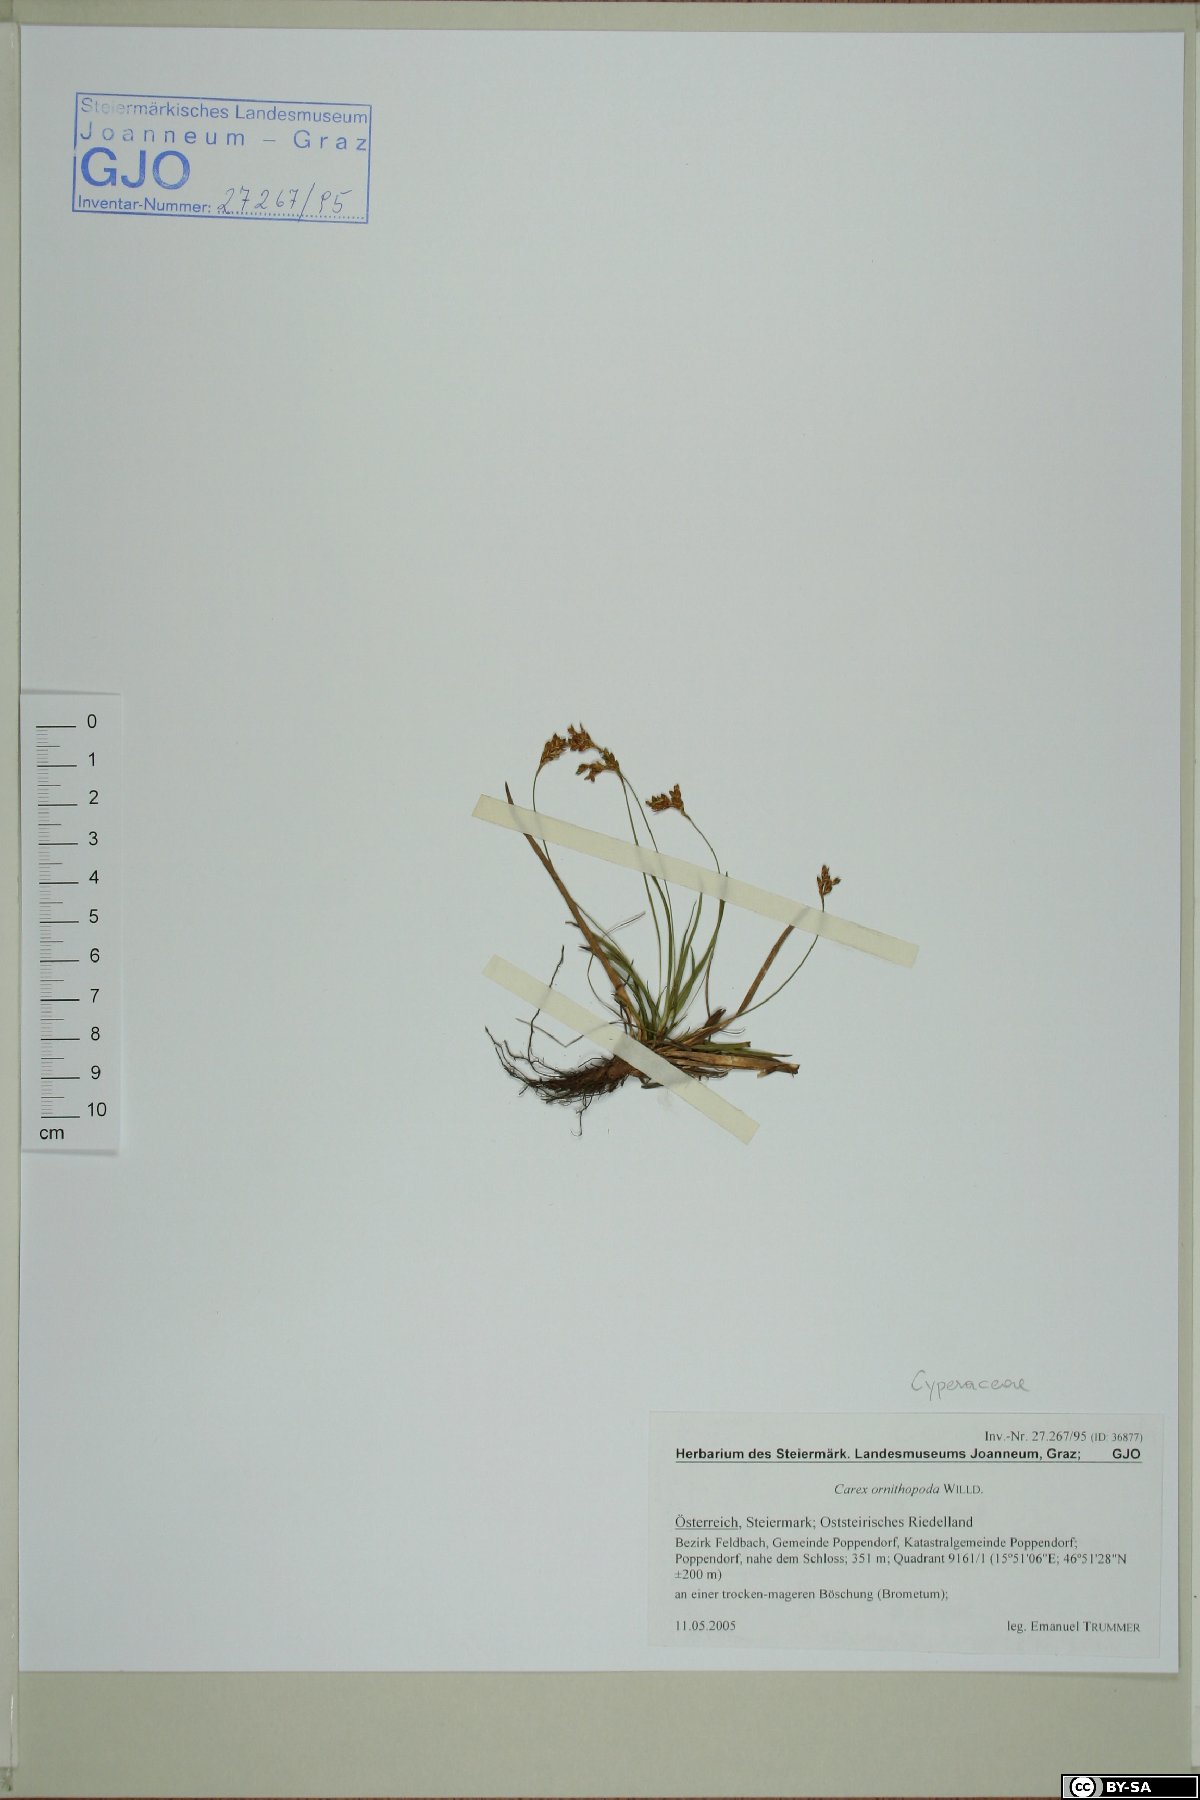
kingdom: Plantae
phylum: Tracheophyta
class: Liliopsida
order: Poales
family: Cyperaceae
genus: Carex
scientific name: Carex ornithopoda
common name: Bird's-foot sedge
